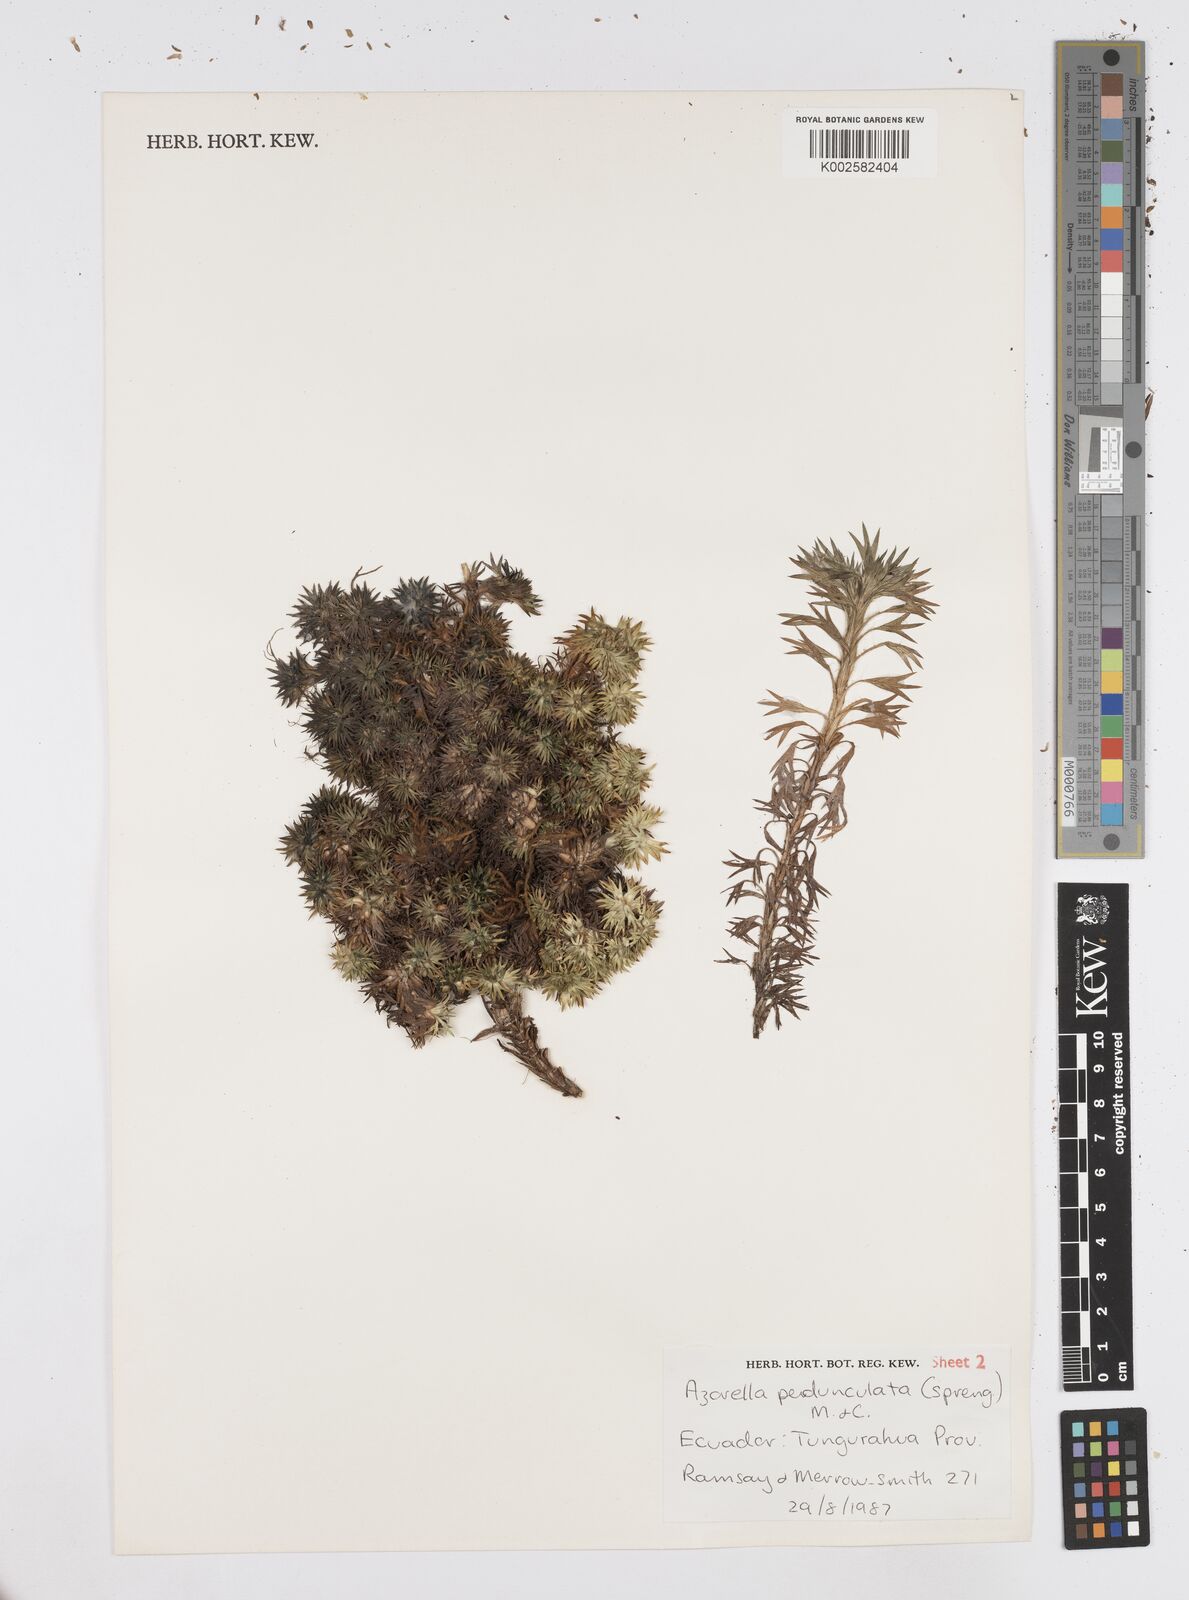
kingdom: Plantae
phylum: Tracheophyta
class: Magnoliopsida
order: Apiales
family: Apiaceae
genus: Azorella
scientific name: Azorella pedunculata
